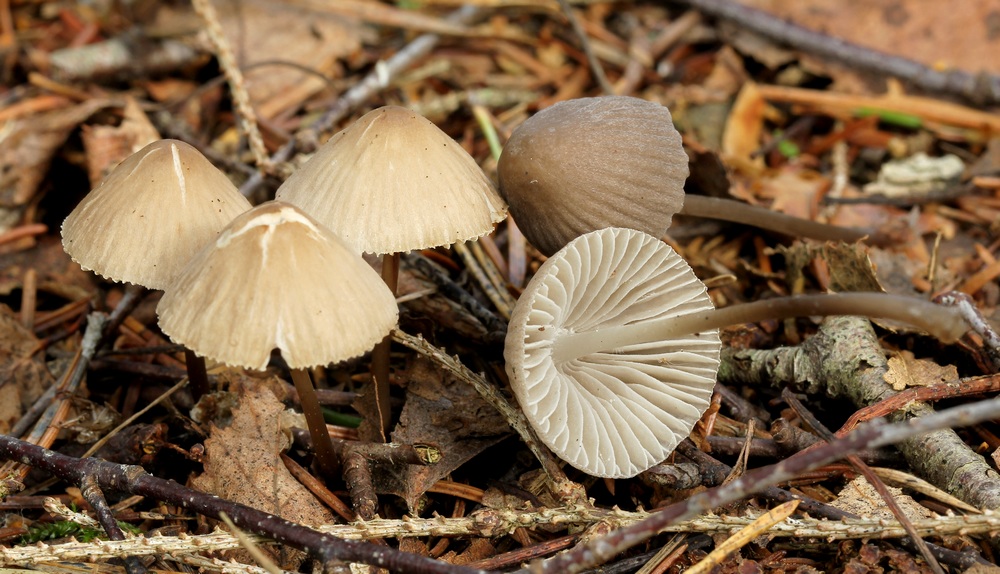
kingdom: Fungi
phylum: Basidiomycota
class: Agaricomycetes
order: Agaricales
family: Mycenaceae
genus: Mycena
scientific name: Mycena
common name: huesvamp
